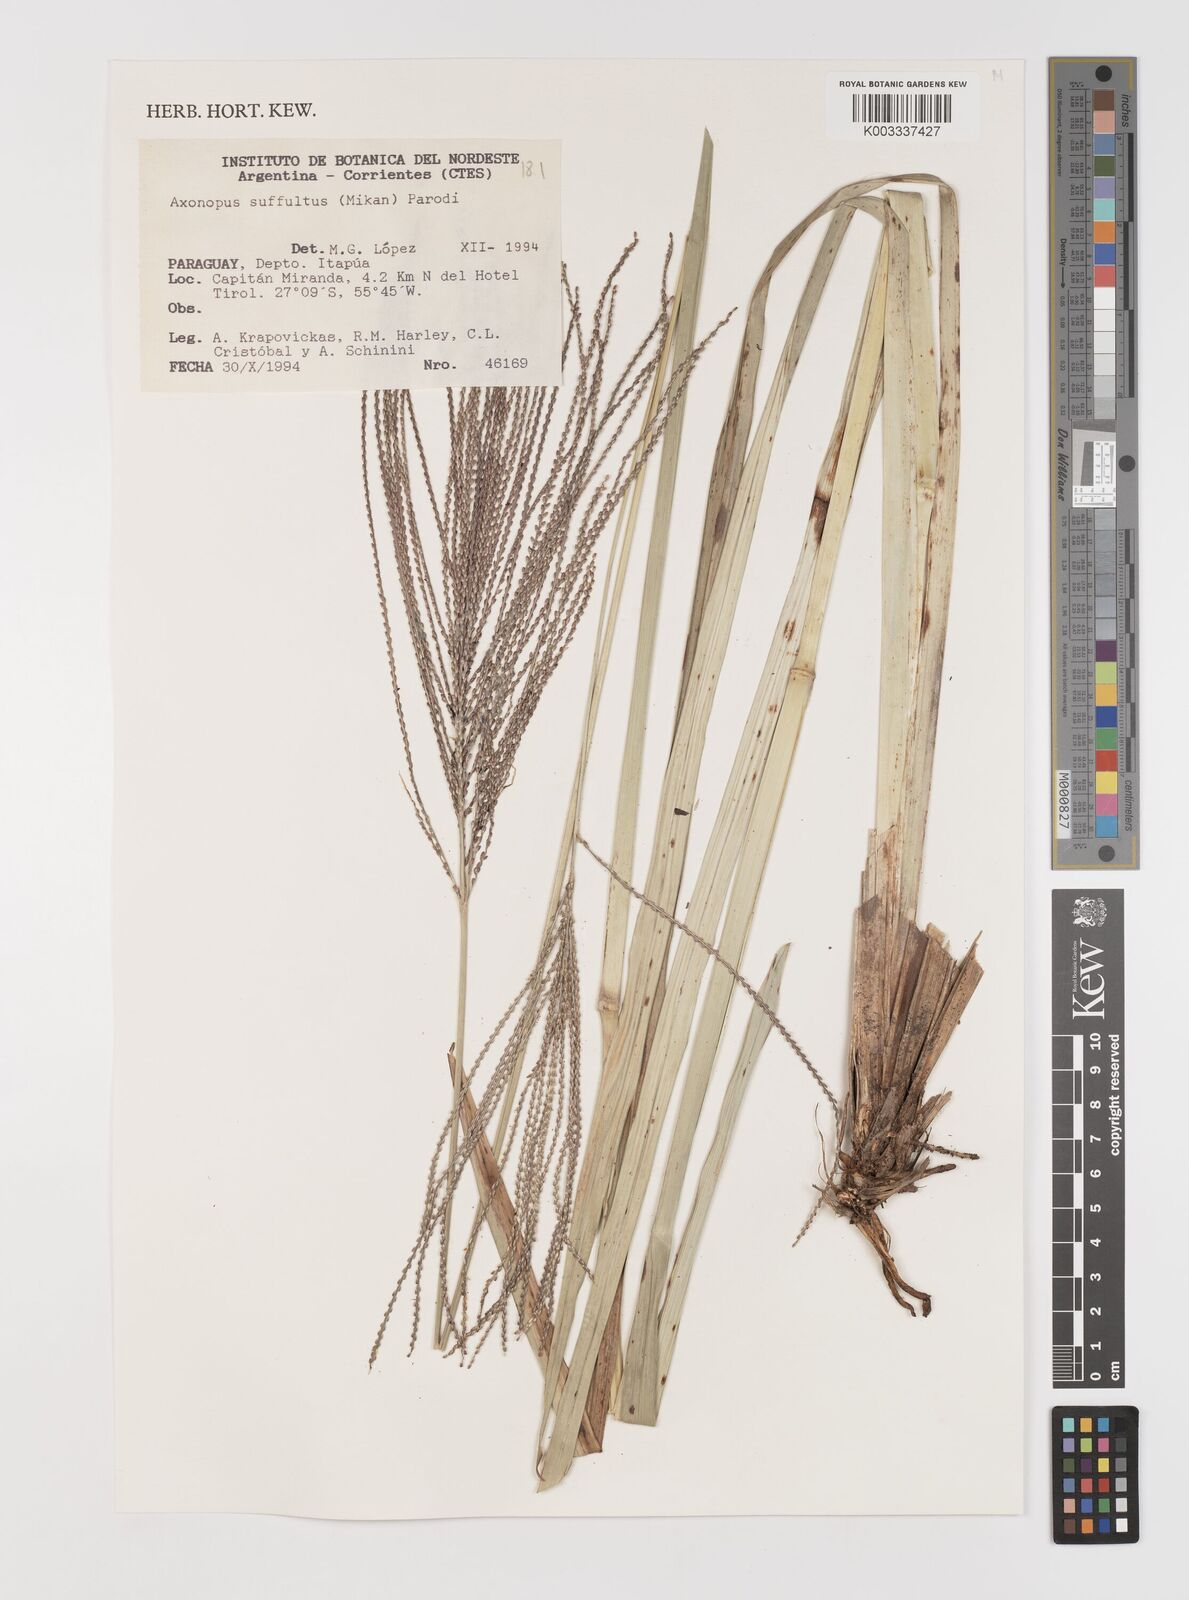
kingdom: Plantae
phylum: Tracheophyta
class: Liliopsida
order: Poales
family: Poaceae
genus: Axonopus
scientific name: Axonopus suffultus
